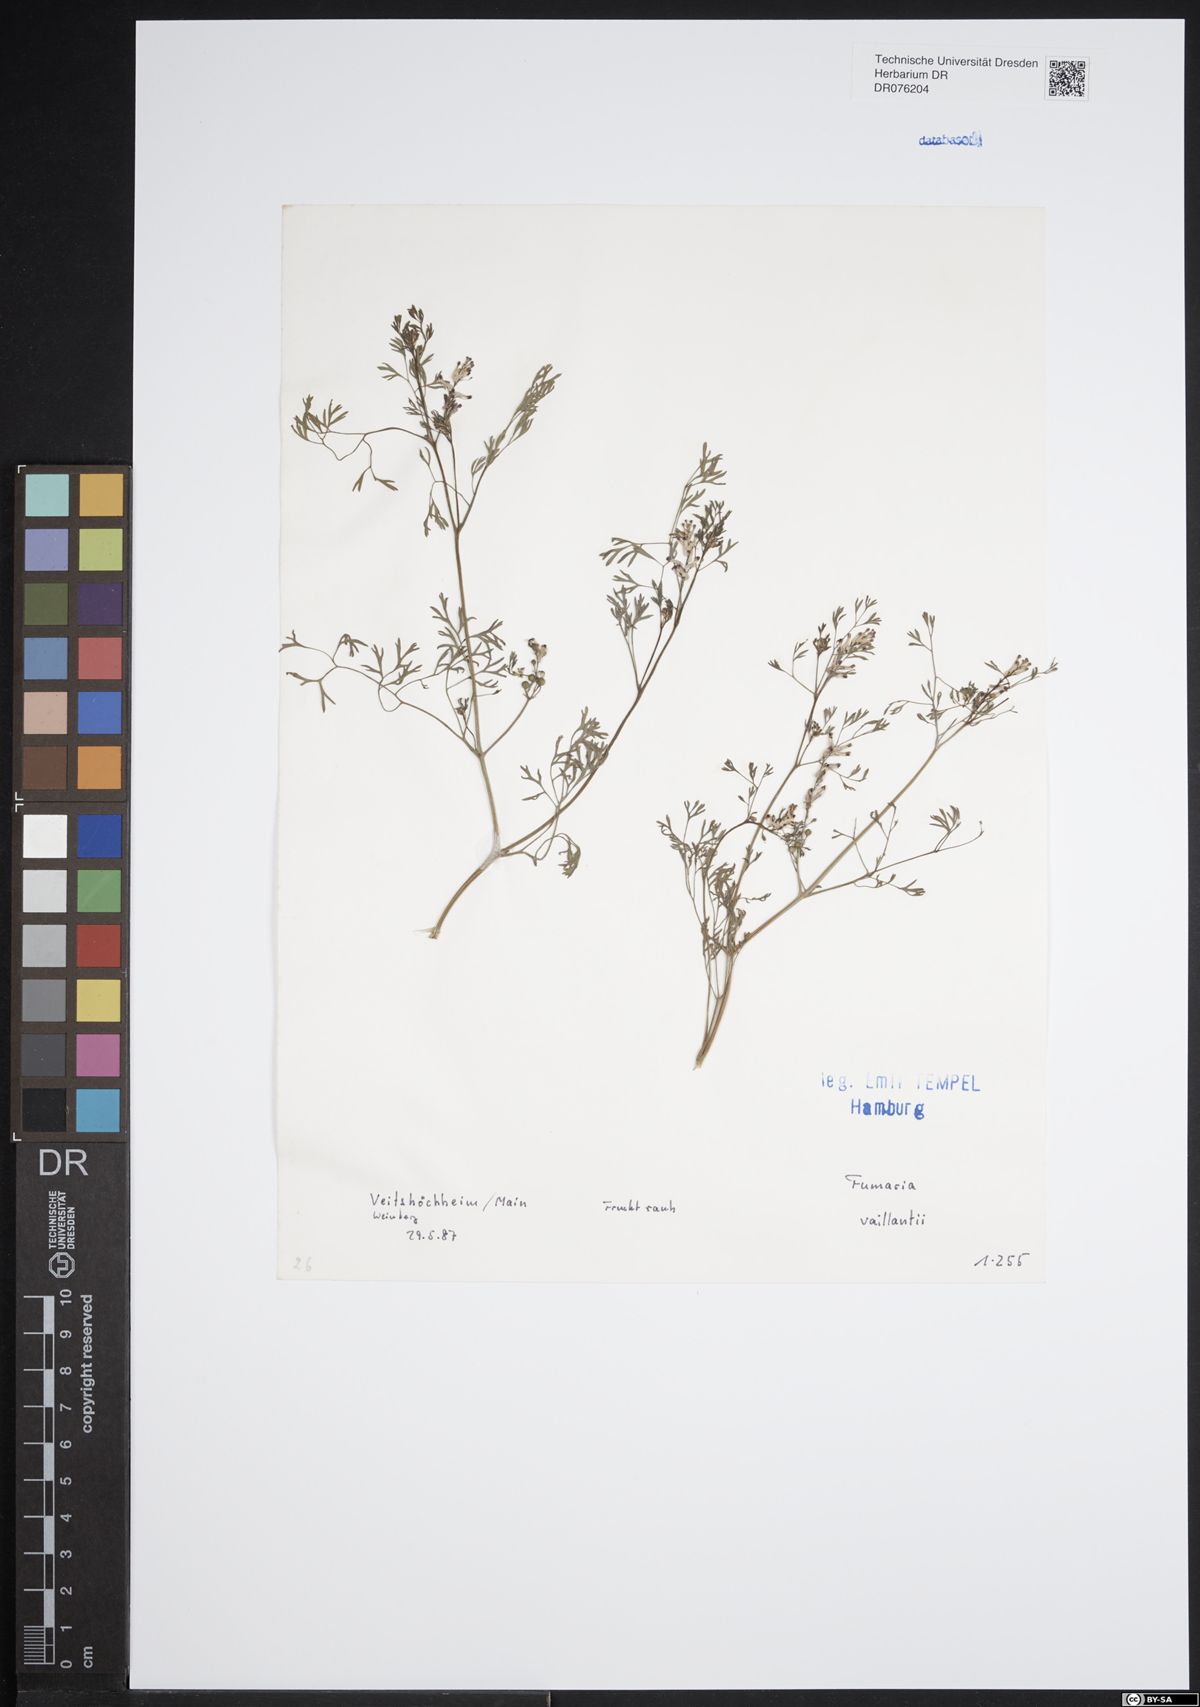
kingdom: Plantae
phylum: Tracheophyta
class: Magnoliopsida
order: Ranunculales
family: Papaveraceae
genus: Fumaria
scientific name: Fumaria vaillantii
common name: Few-flowered fumitory
